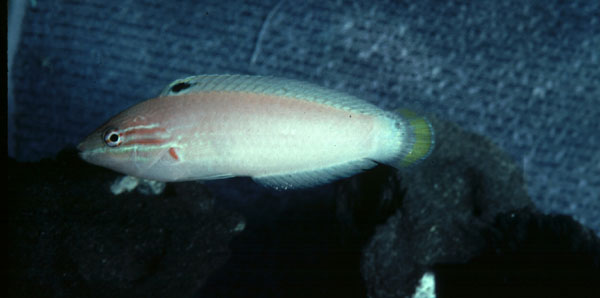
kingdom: Animalia
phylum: Chordata
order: Perciformes
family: Labridae
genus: Halichoeres
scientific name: Halichoeres
